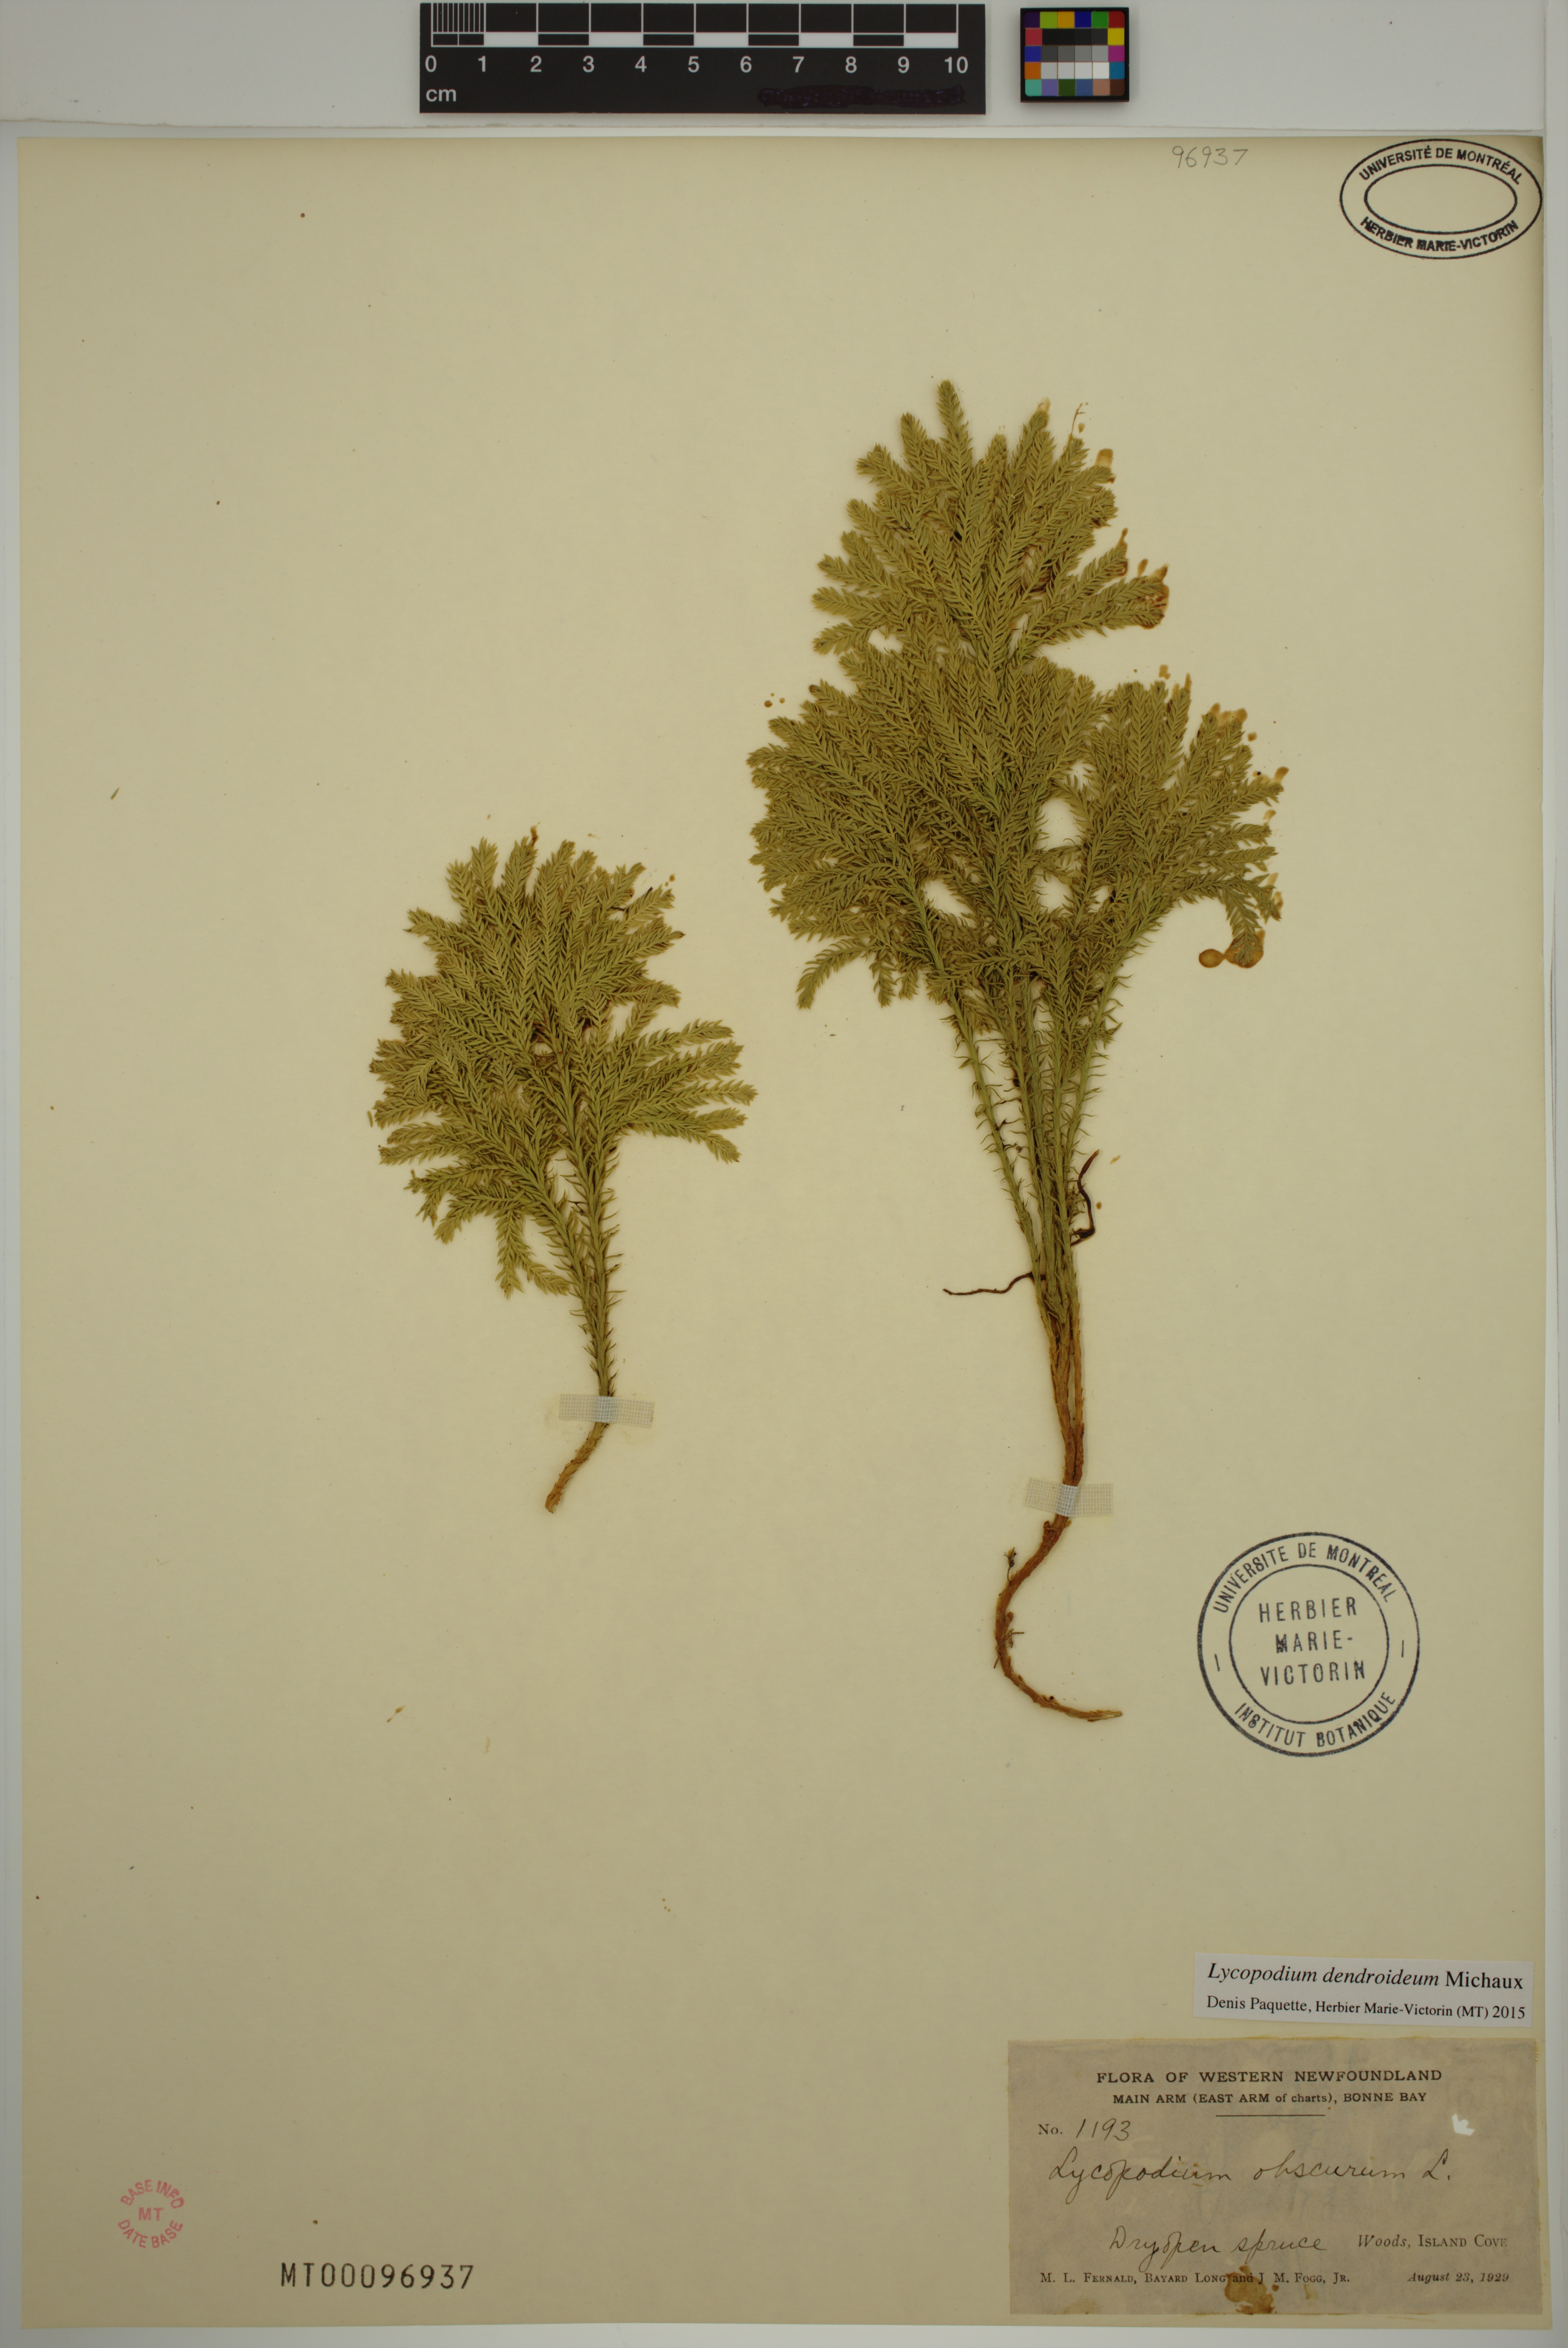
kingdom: Plantae
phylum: Tracheophyta
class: Lycopodiopsida
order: Lycopodiales
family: Lycopodiaceae
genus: Dendrolycopodium
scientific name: Dendrolycopodium dendroideum
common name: Northern tree-clubmoss
